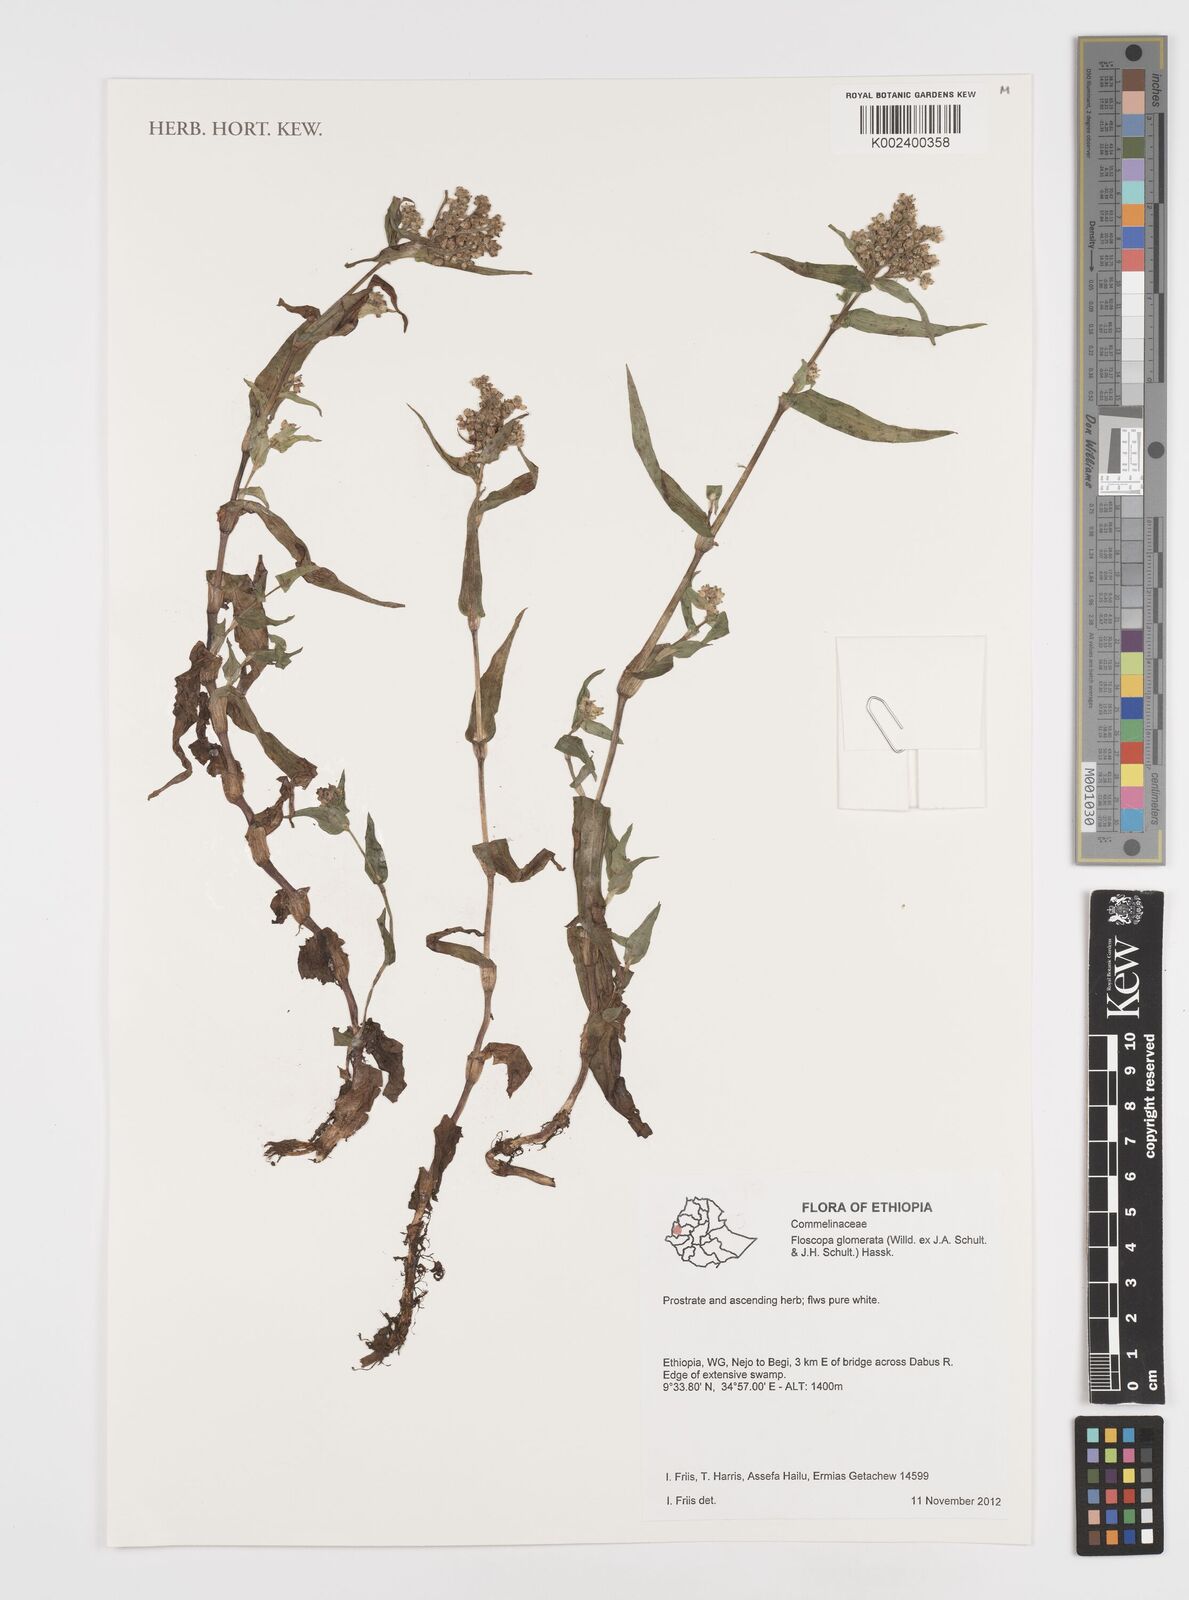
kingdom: Plantae
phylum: Tracheophyta
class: Liliopsida
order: Commelinales
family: Commelinaceae
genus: Floscopa
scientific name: Floscopa glomerata
